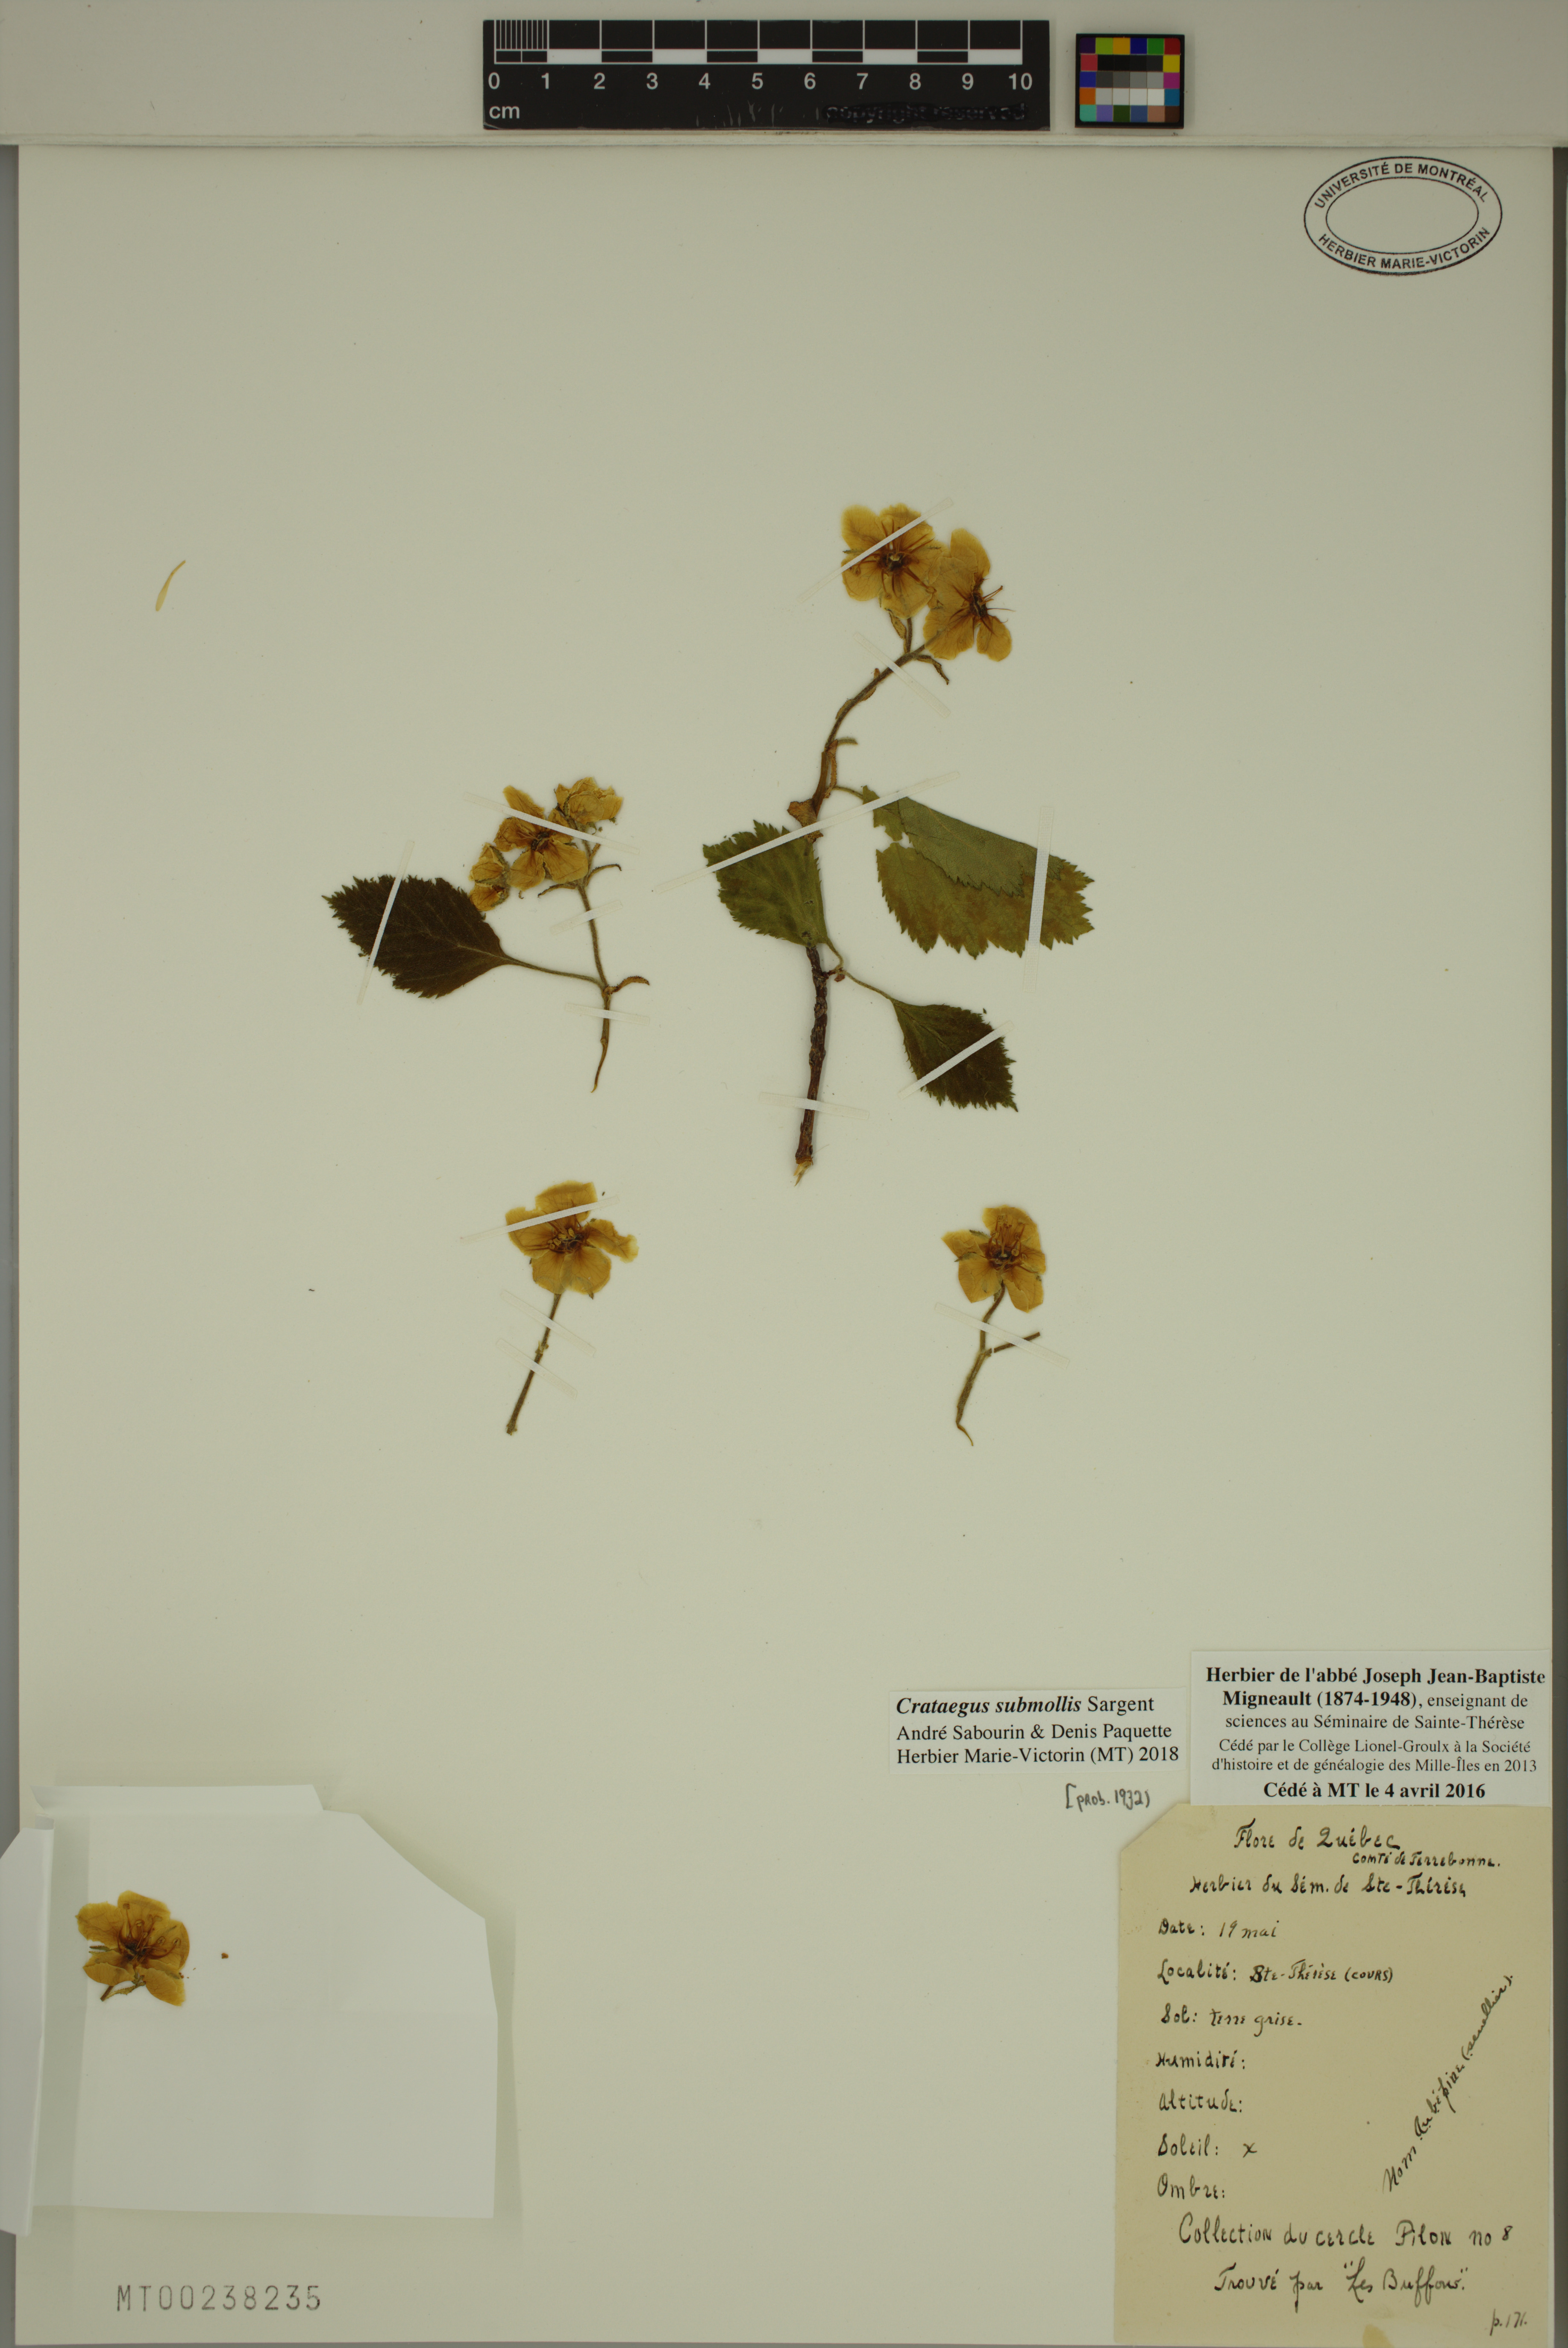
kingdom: Plantae
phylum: Tracheophyta
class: Magnoliopsida
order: Rosales
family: Rosaceae
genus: Crataegus
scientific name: Crataegus submollis
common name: Hairy cockspurthorn
